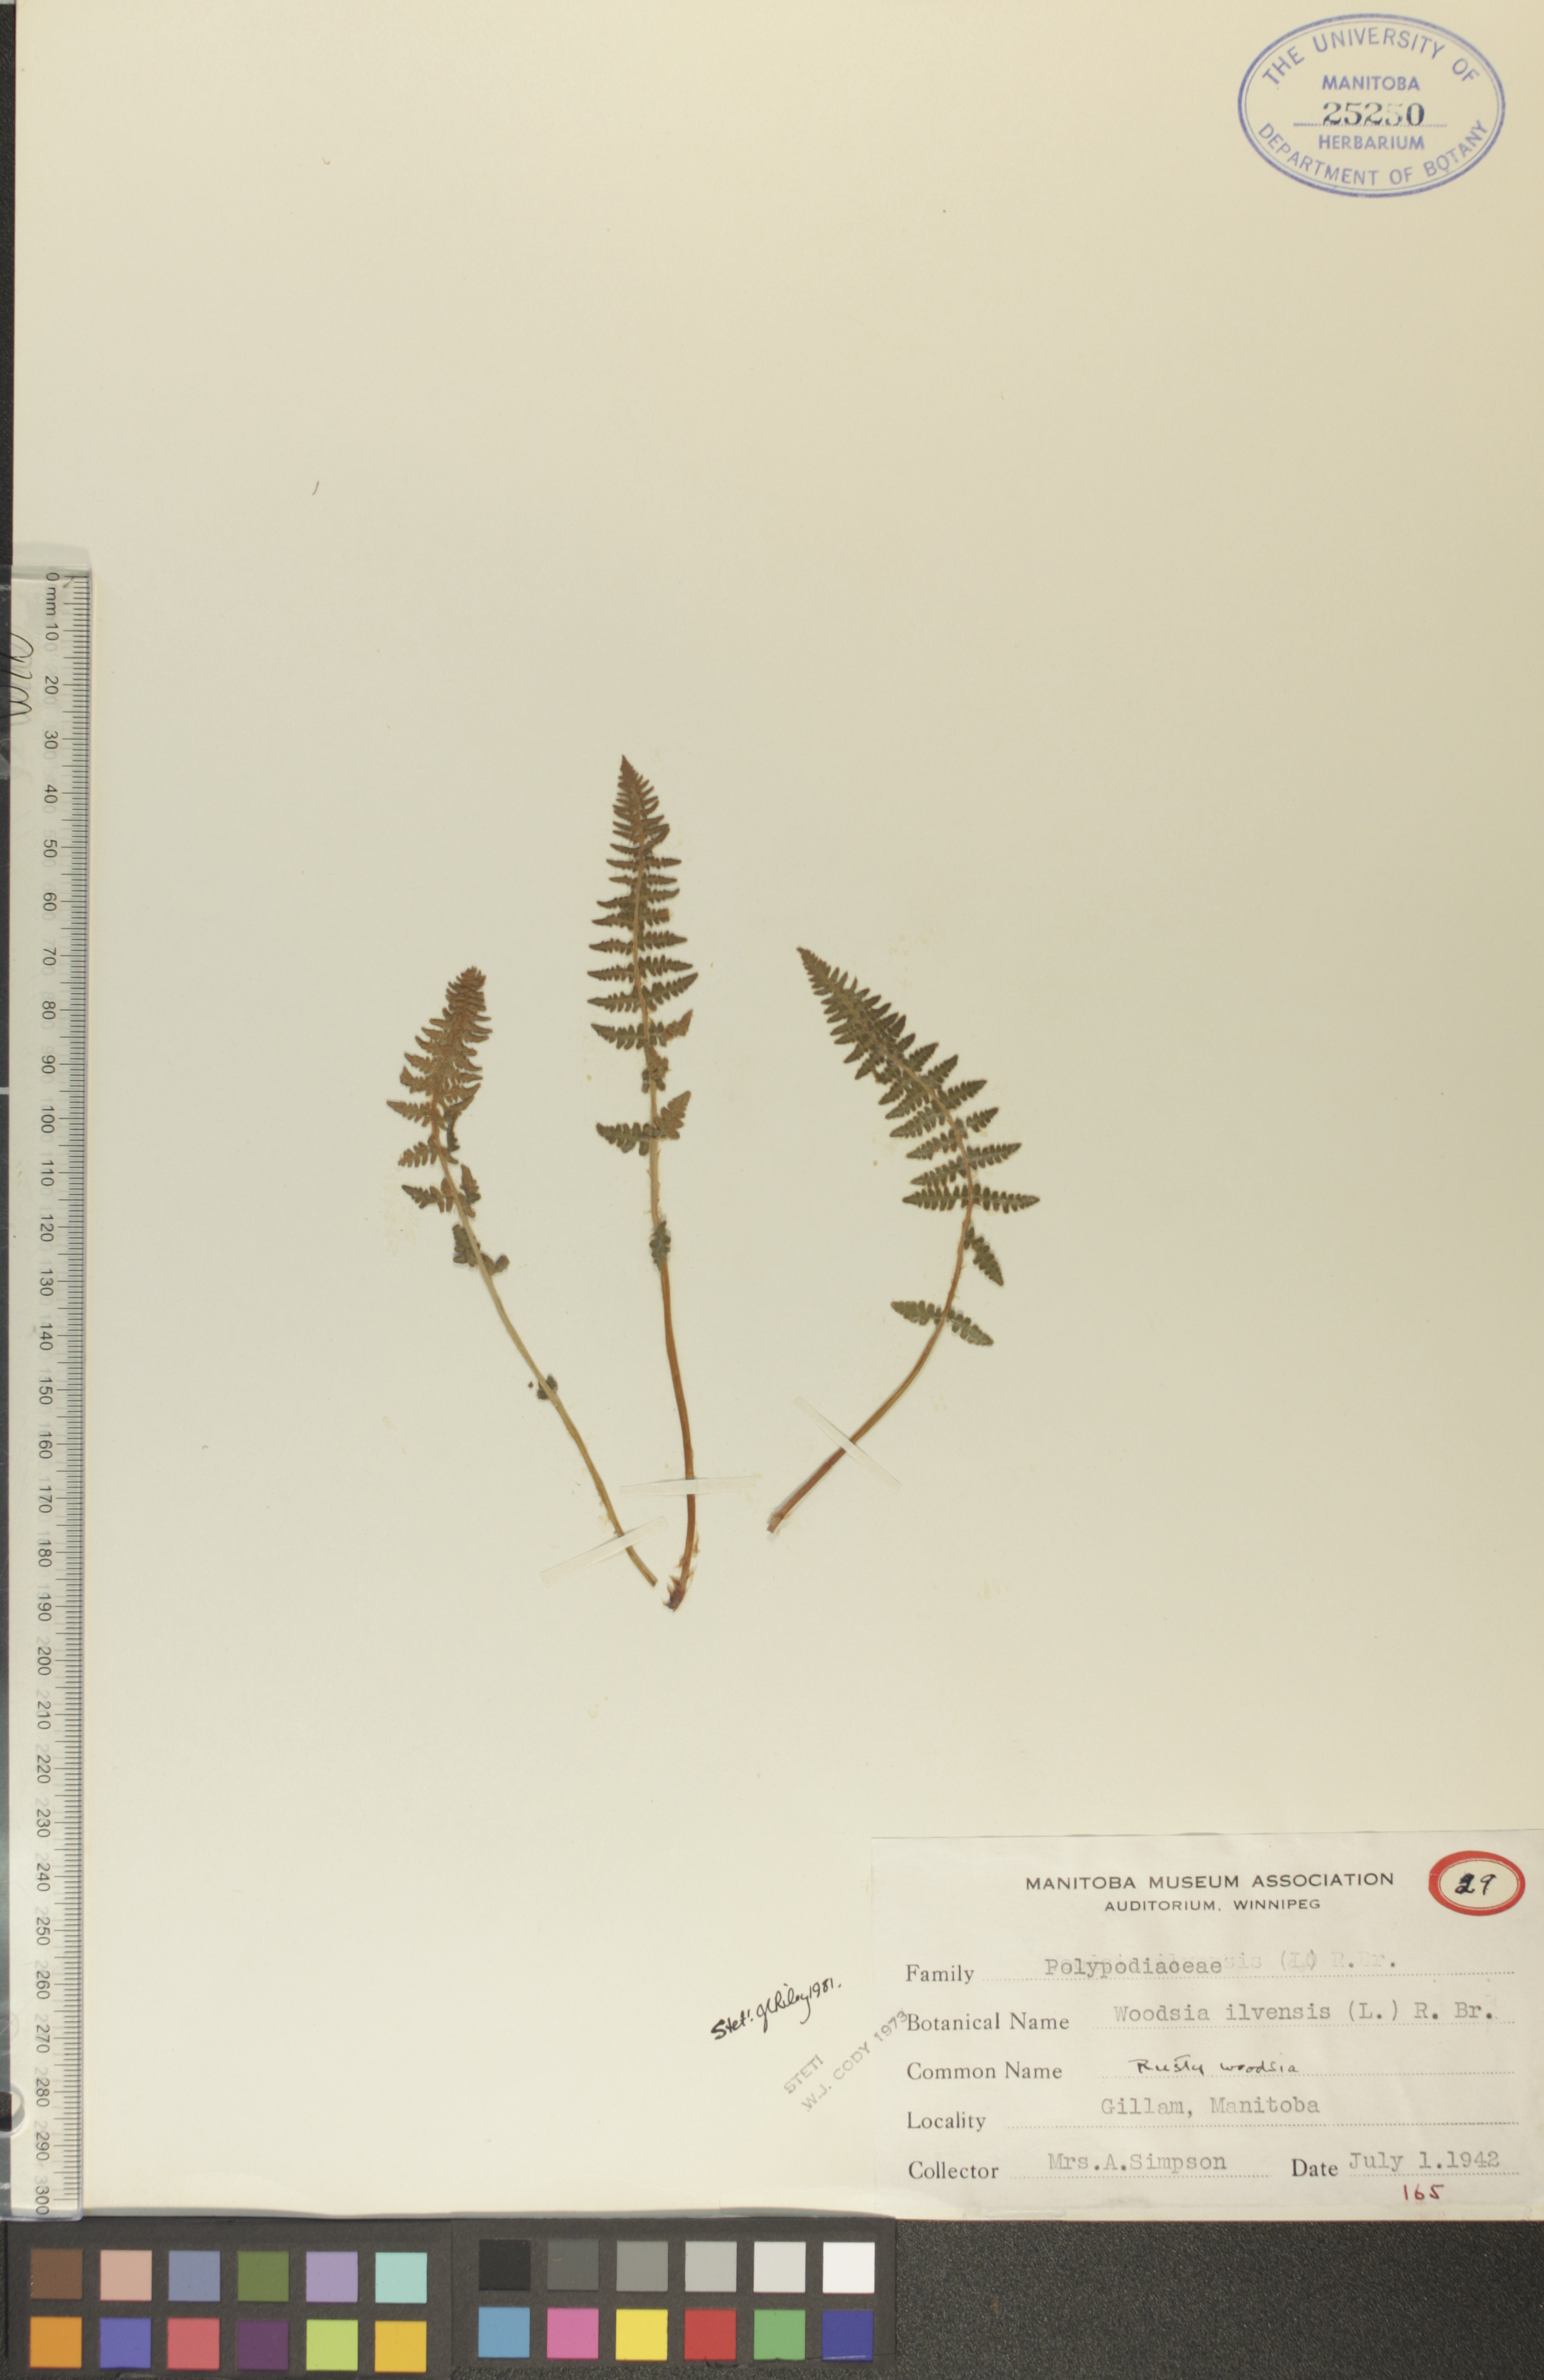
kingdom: Plantae
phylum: Tracheophyta
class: Polypodiopsida
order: Polypodiales
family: Woodsiaceae
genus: Woodsia
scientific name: Woodsia ilvensis
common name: Fragrant woodsia
